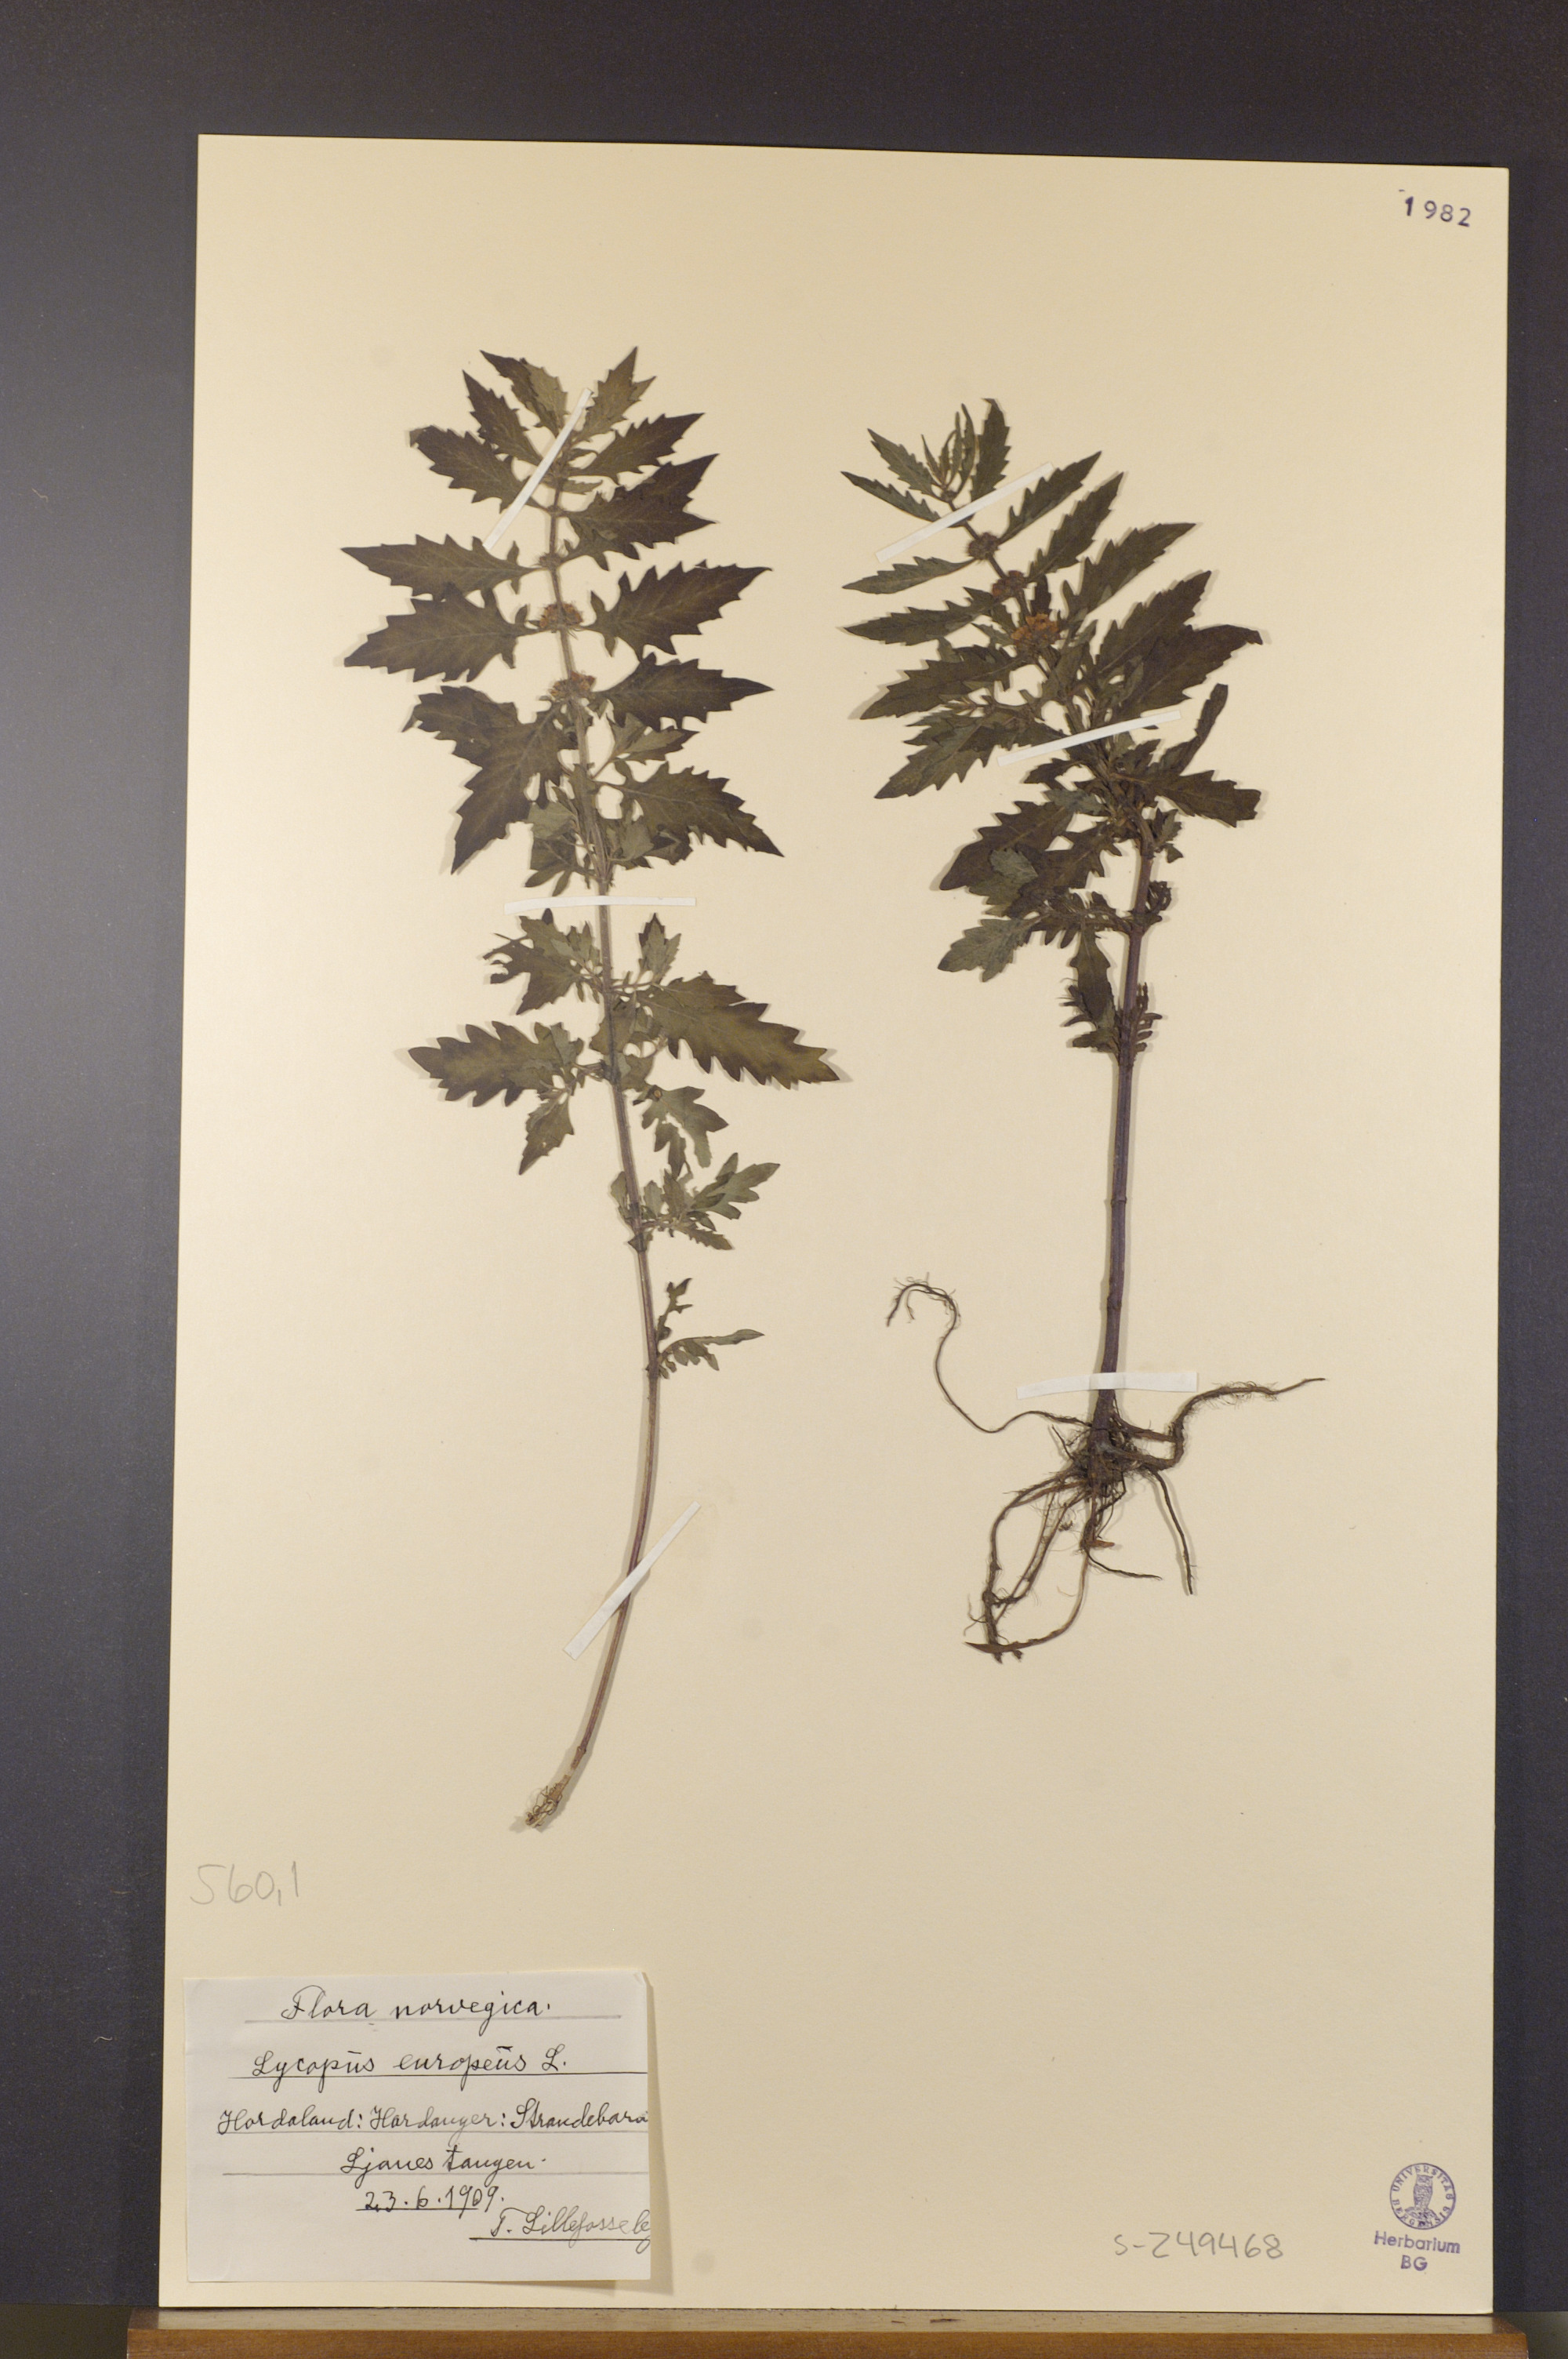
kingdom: Plantae
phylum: Tracheophyta
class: Magnoliopsida
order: Lamiales
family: Lamiaceae
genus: Lycopus
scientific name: Lycopus europaeus
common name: European bugleweed
